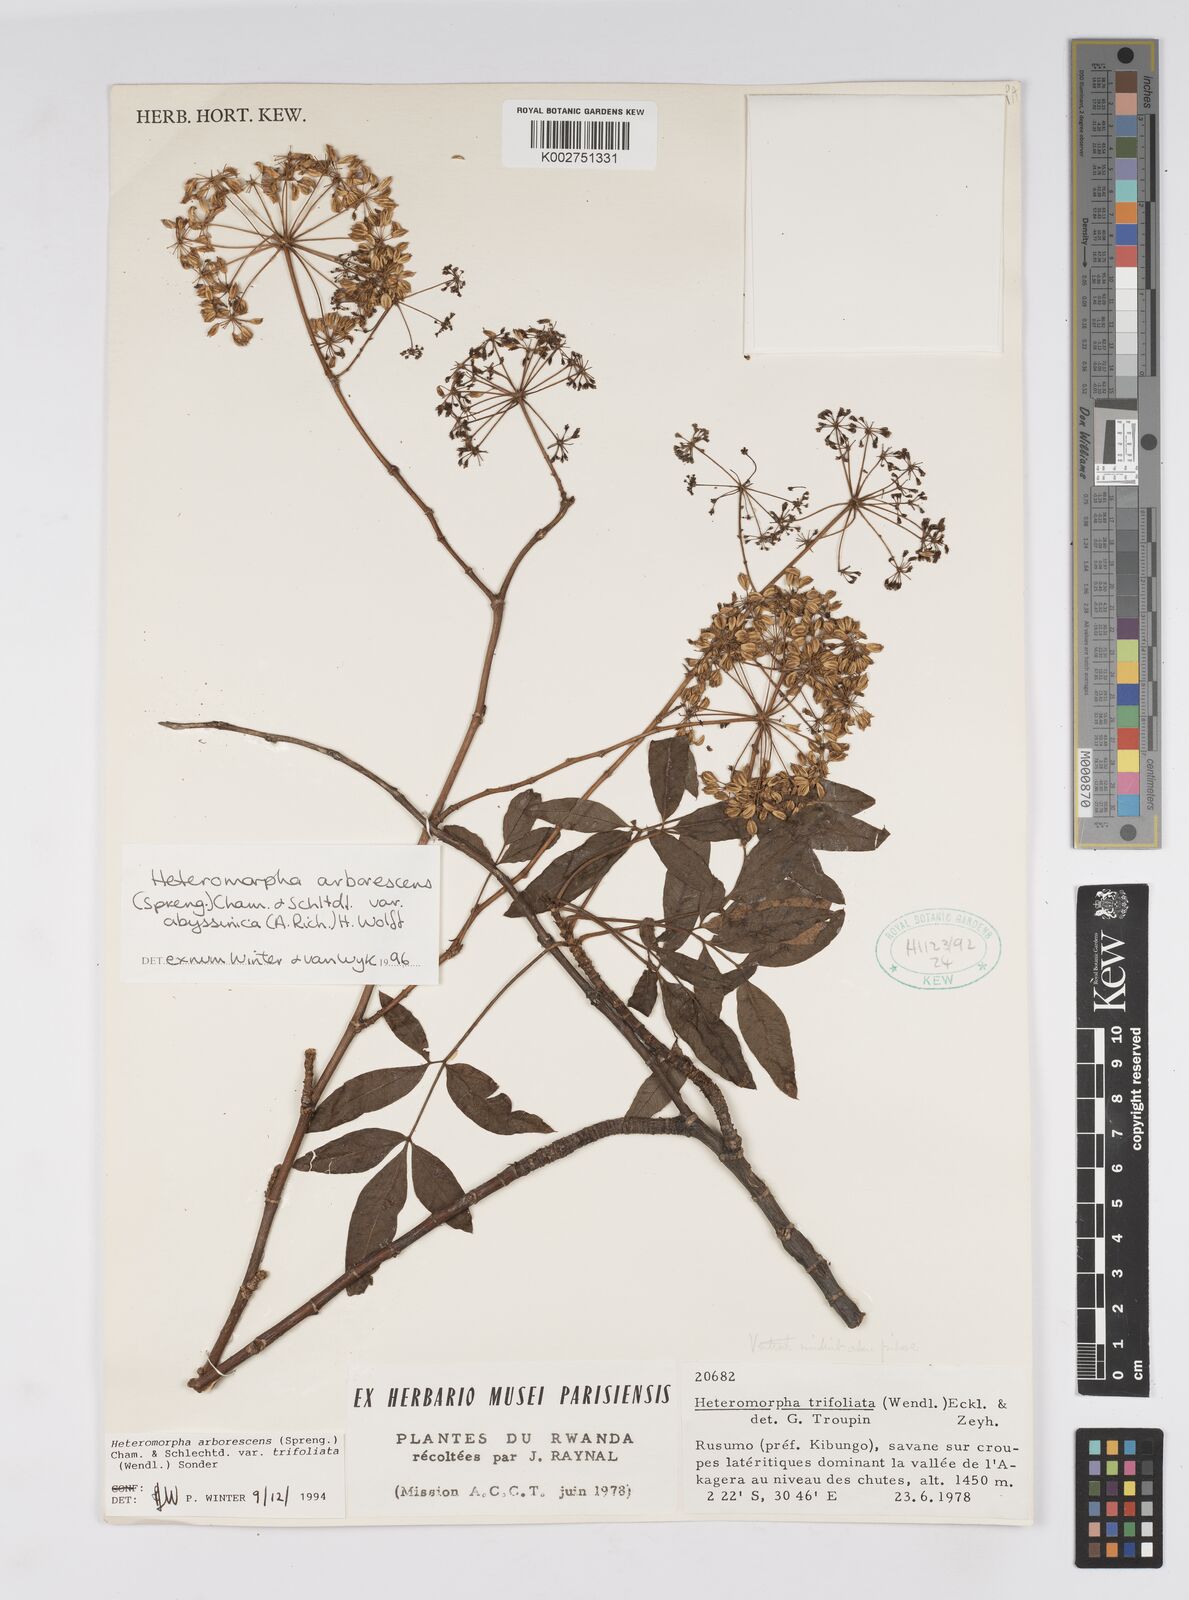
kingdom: Plantae
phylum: Tracheophyta
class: Magnoliopsida
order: Apiales
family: Apiaceae
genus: Heteromorpha
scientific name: Heteromorpha arborescens
